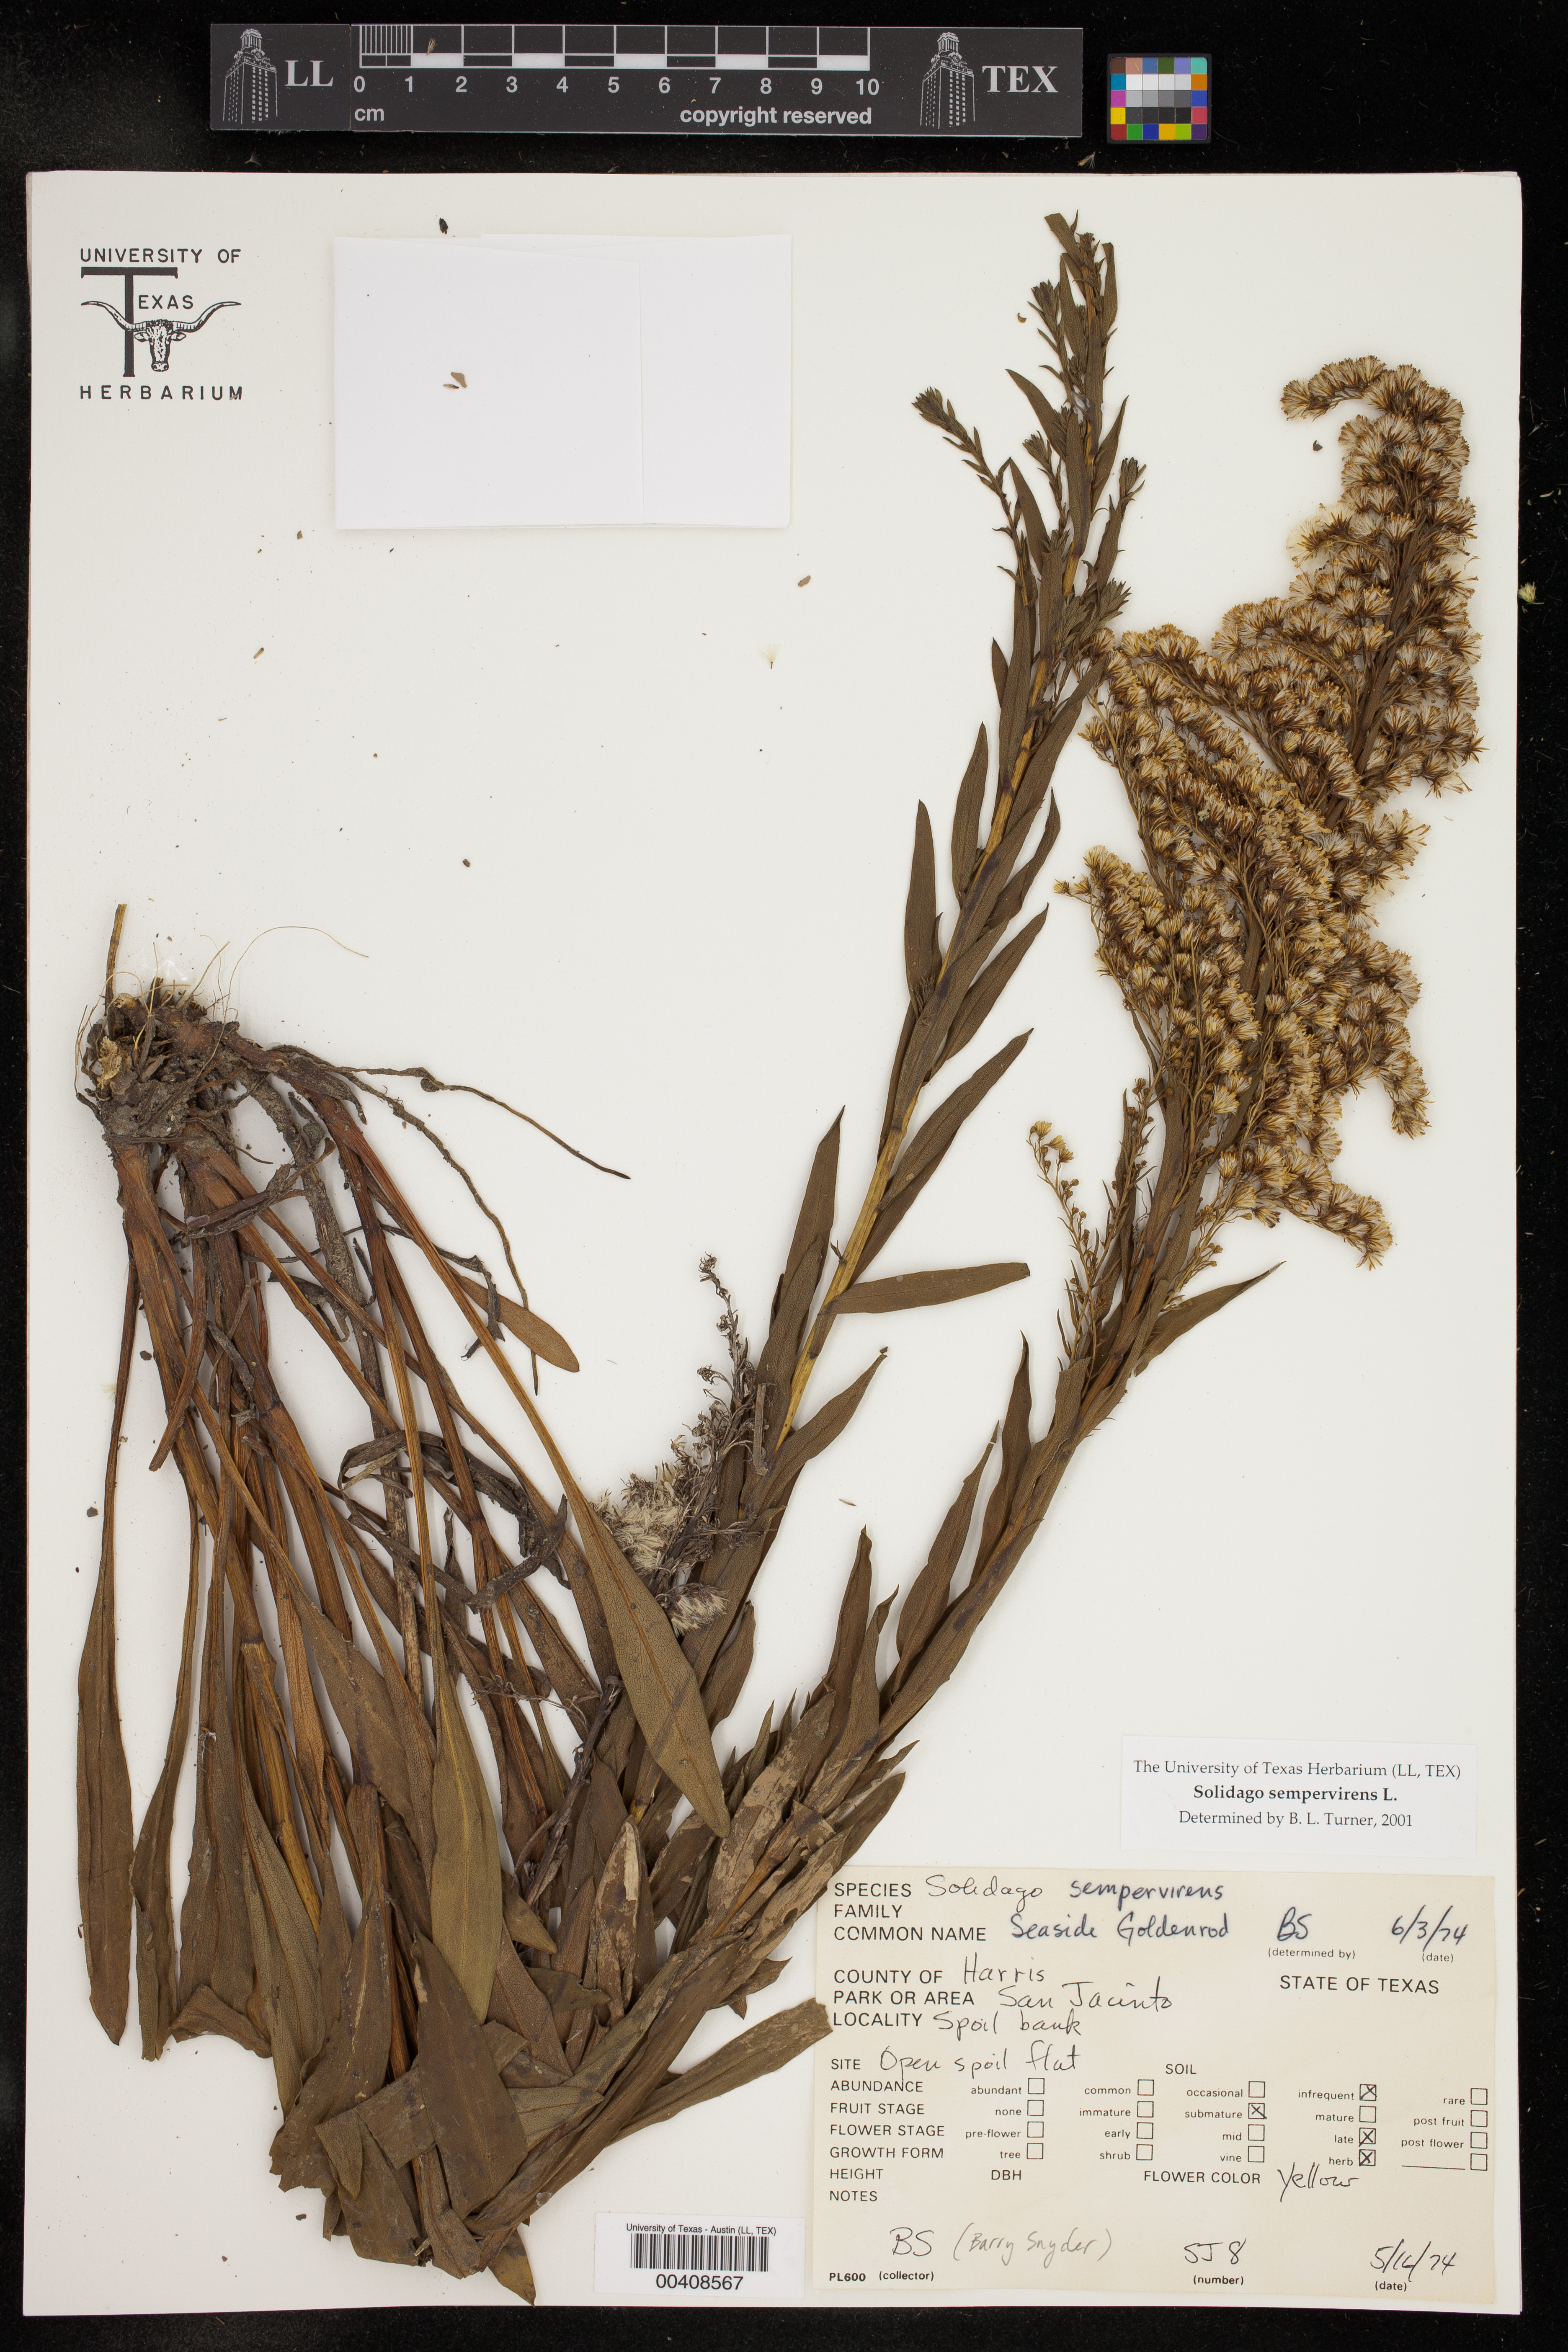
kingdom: Plantae
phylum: Tracheophyta
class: Magnoliopsida
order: Asterales
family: Asteraceae
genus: Solidago
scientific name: Solidago sempervirens
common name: Salt-marsh goldenrod
